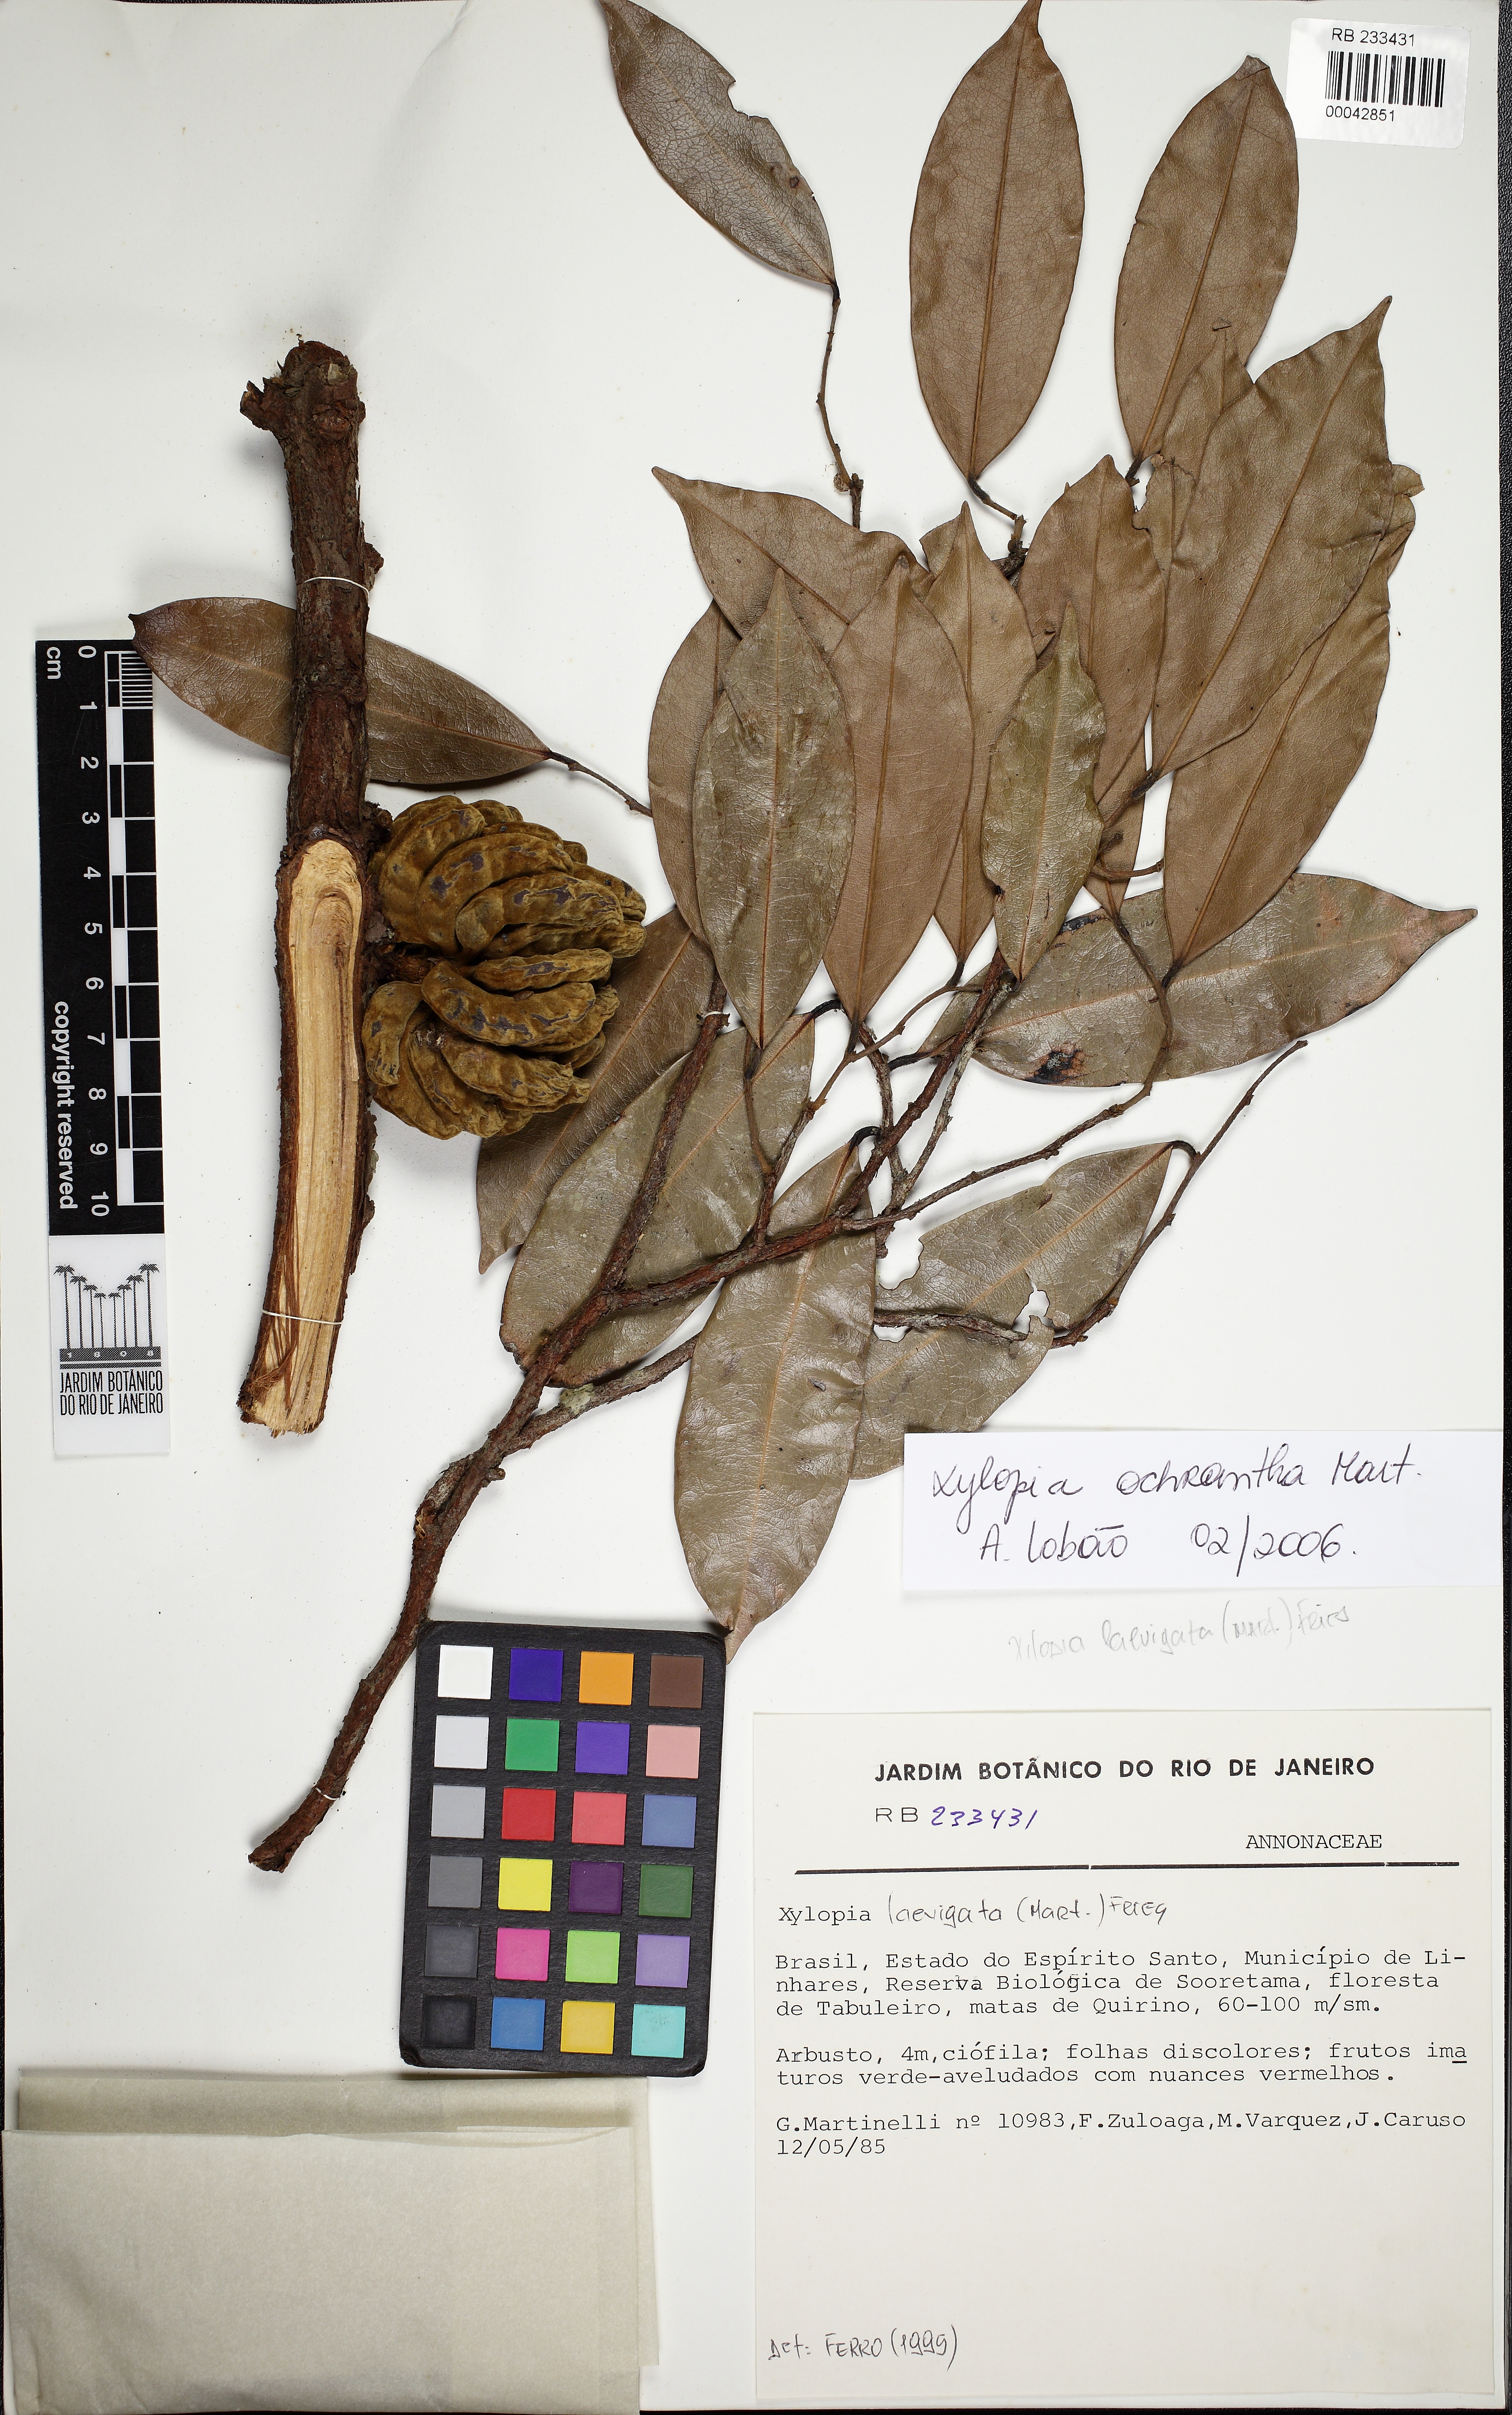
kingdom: Plantae
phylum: Tracheophyta
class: Magnoliopsida
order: Magnoliales
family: Annonaceae
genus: Xylopia
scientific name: Xylopia ochrantha
